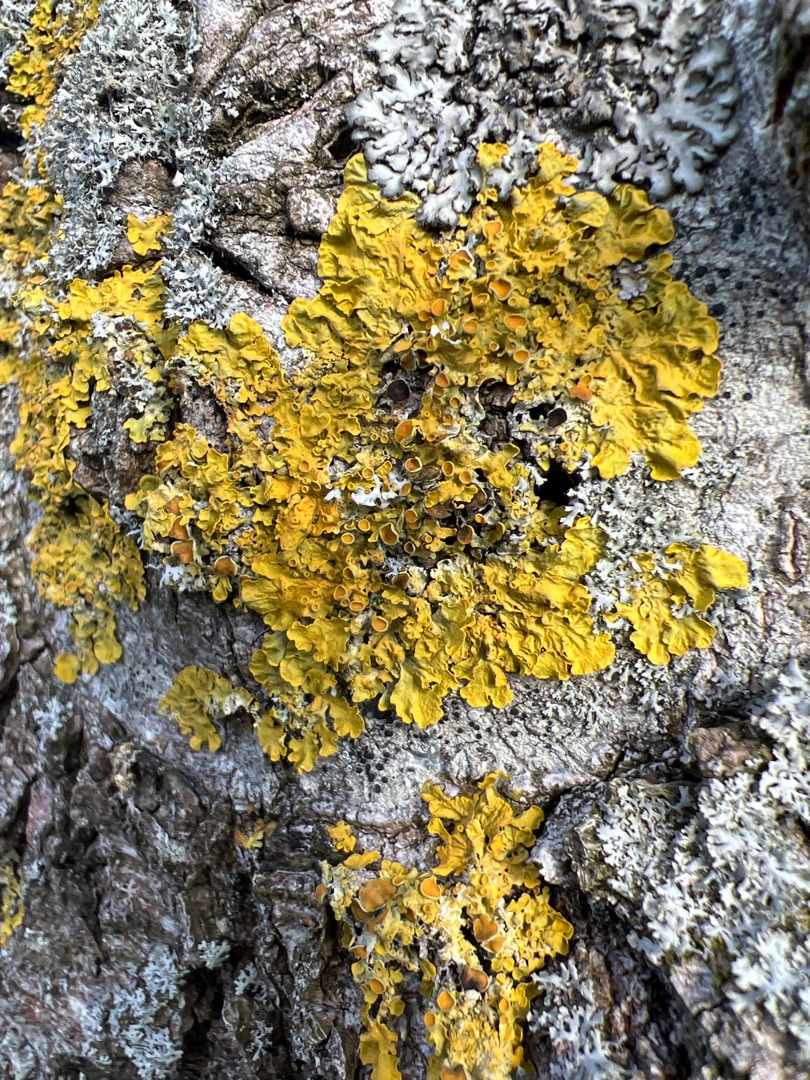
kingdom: Fungi
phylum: Ascomycota
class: Lecanoromycetes
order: Teloschistales
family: Teloschistaceae
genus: Xanthoria
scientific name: Xanthoria parietina
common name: Almindelig væggelav
